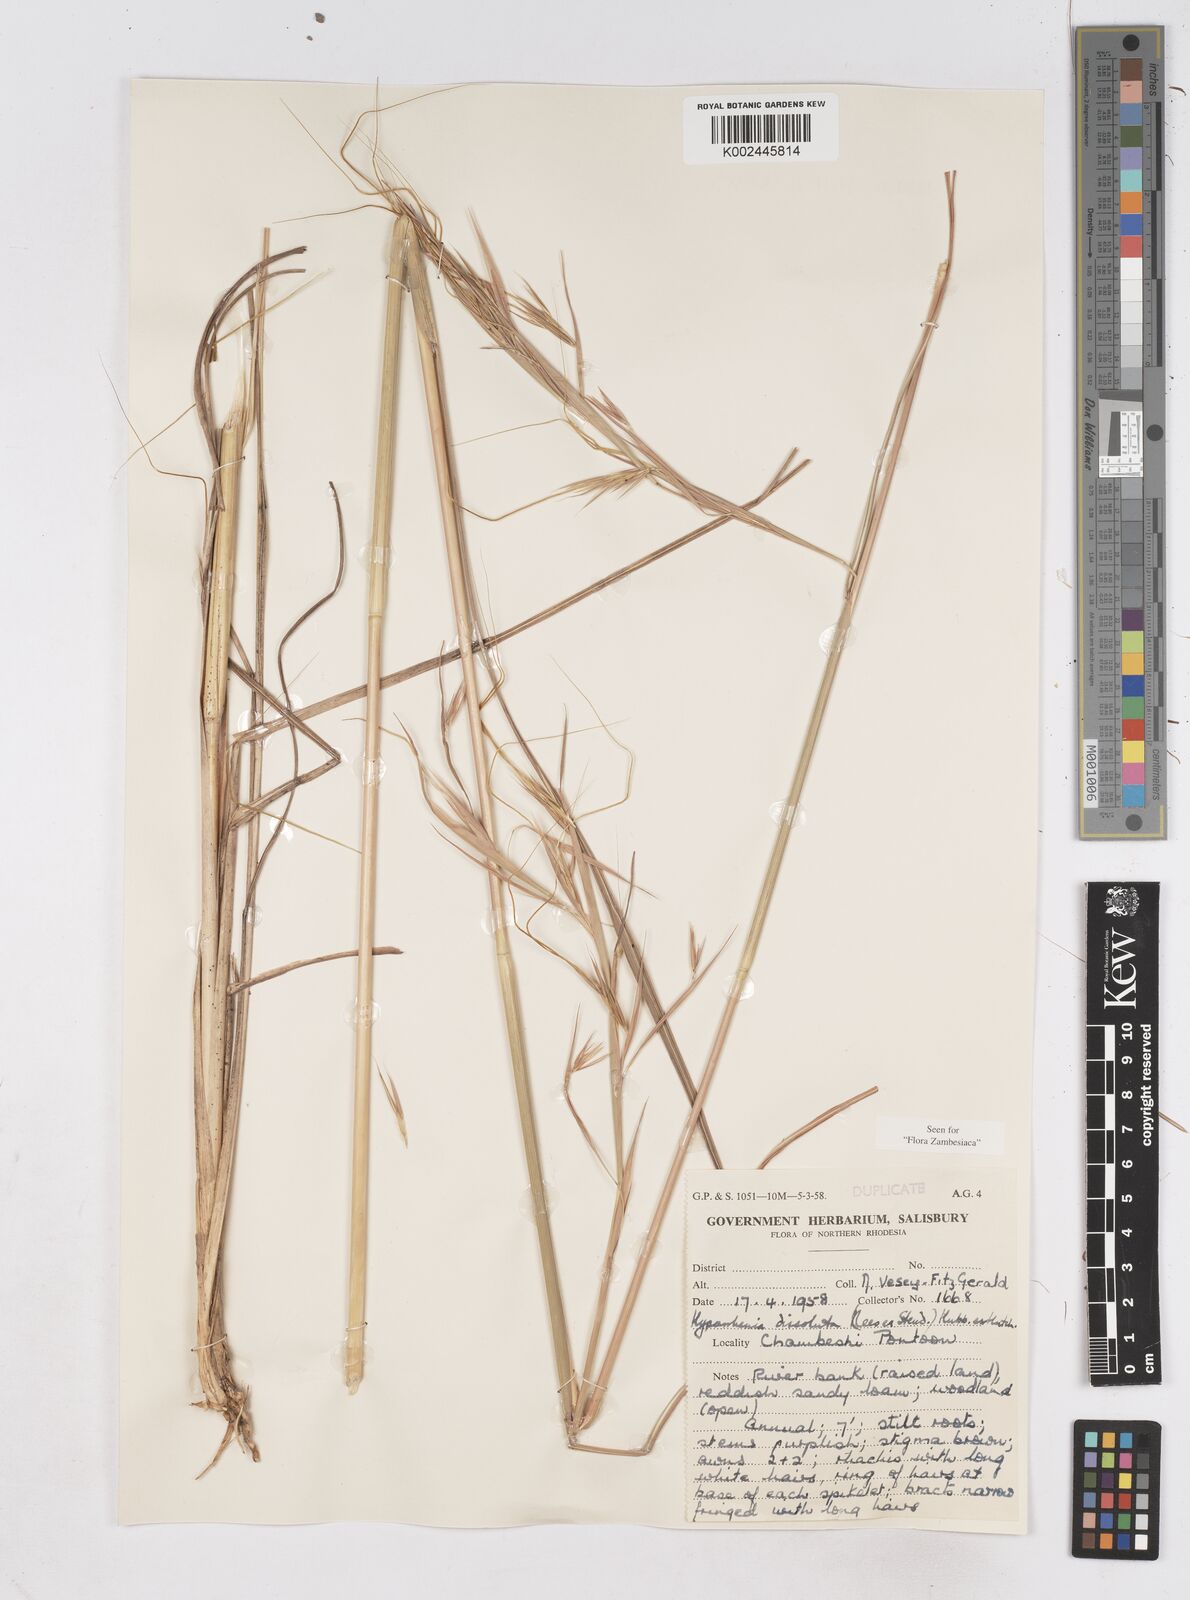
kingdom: Plantae
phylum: Tracheophyta
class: Liliopsida
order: Poales
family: Poaceae
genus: Hyperthelia
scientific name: Hyperthelia dissoluta
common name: Yellow thatching grass
